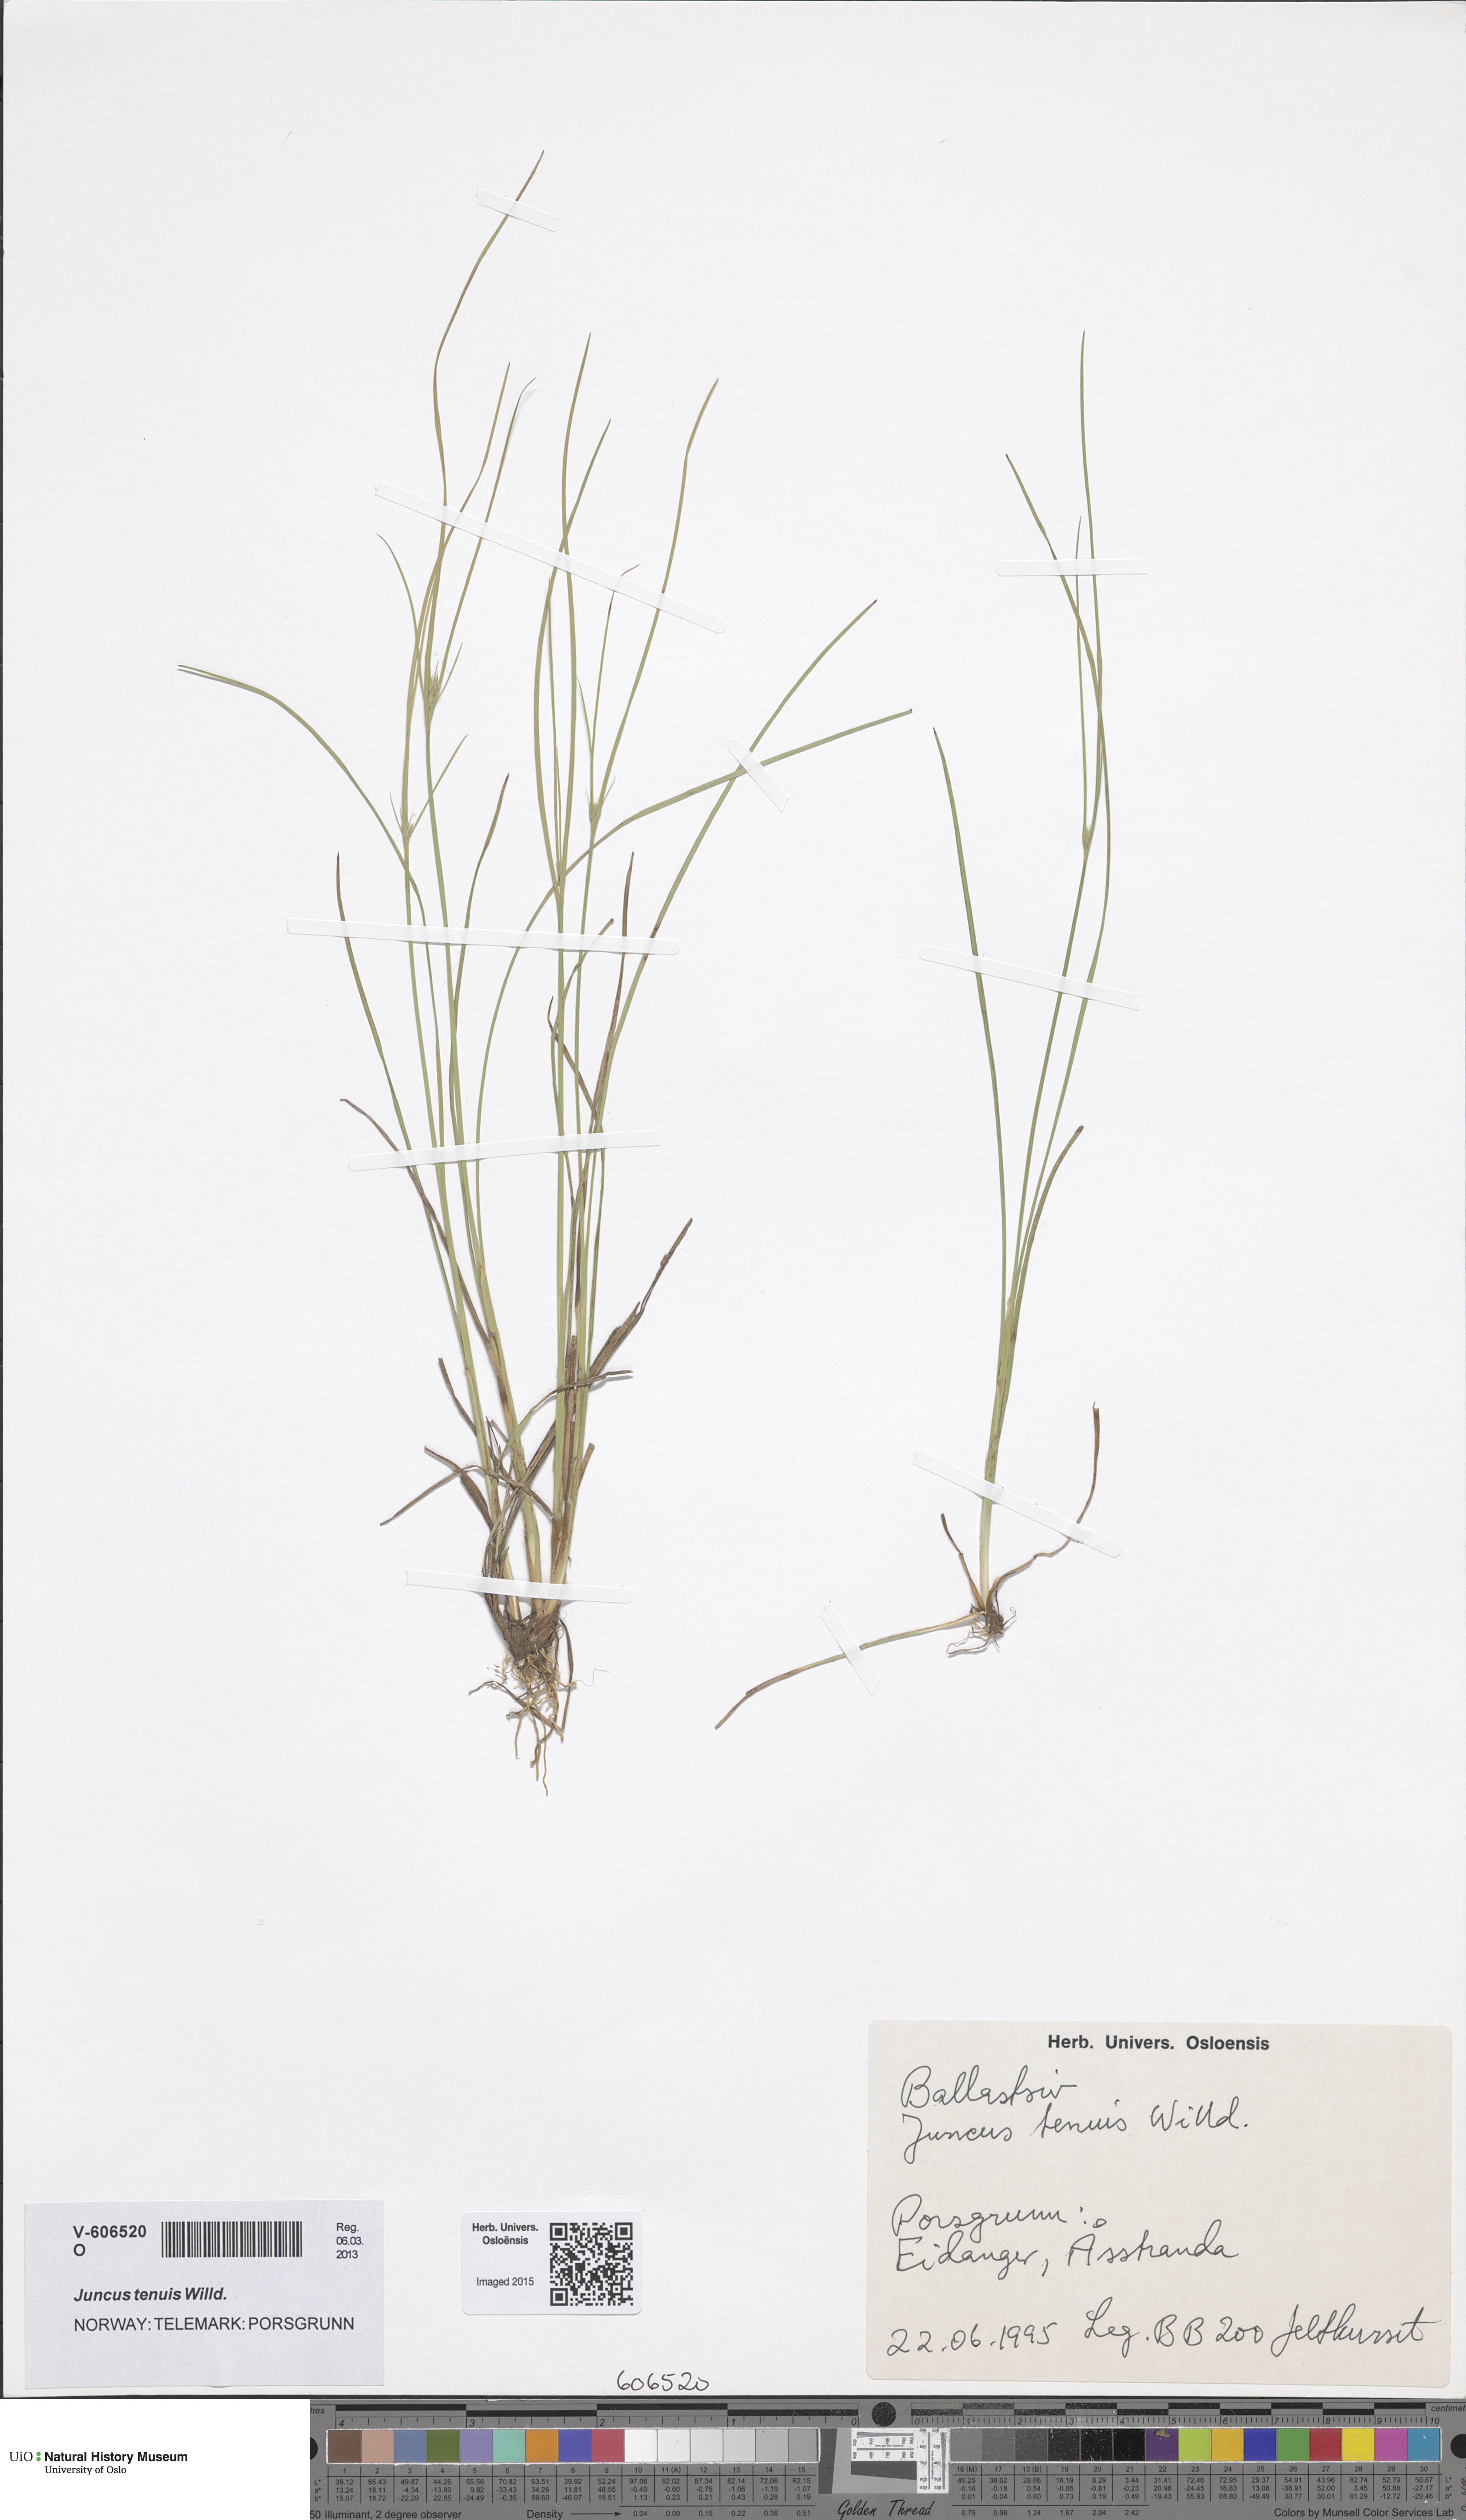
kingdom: Plantae
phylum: Tracheophyta
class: Liliopsida
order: Poales
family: Juncaceae
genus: Juncus
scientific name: Juncus tenuis
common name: Slender rush
